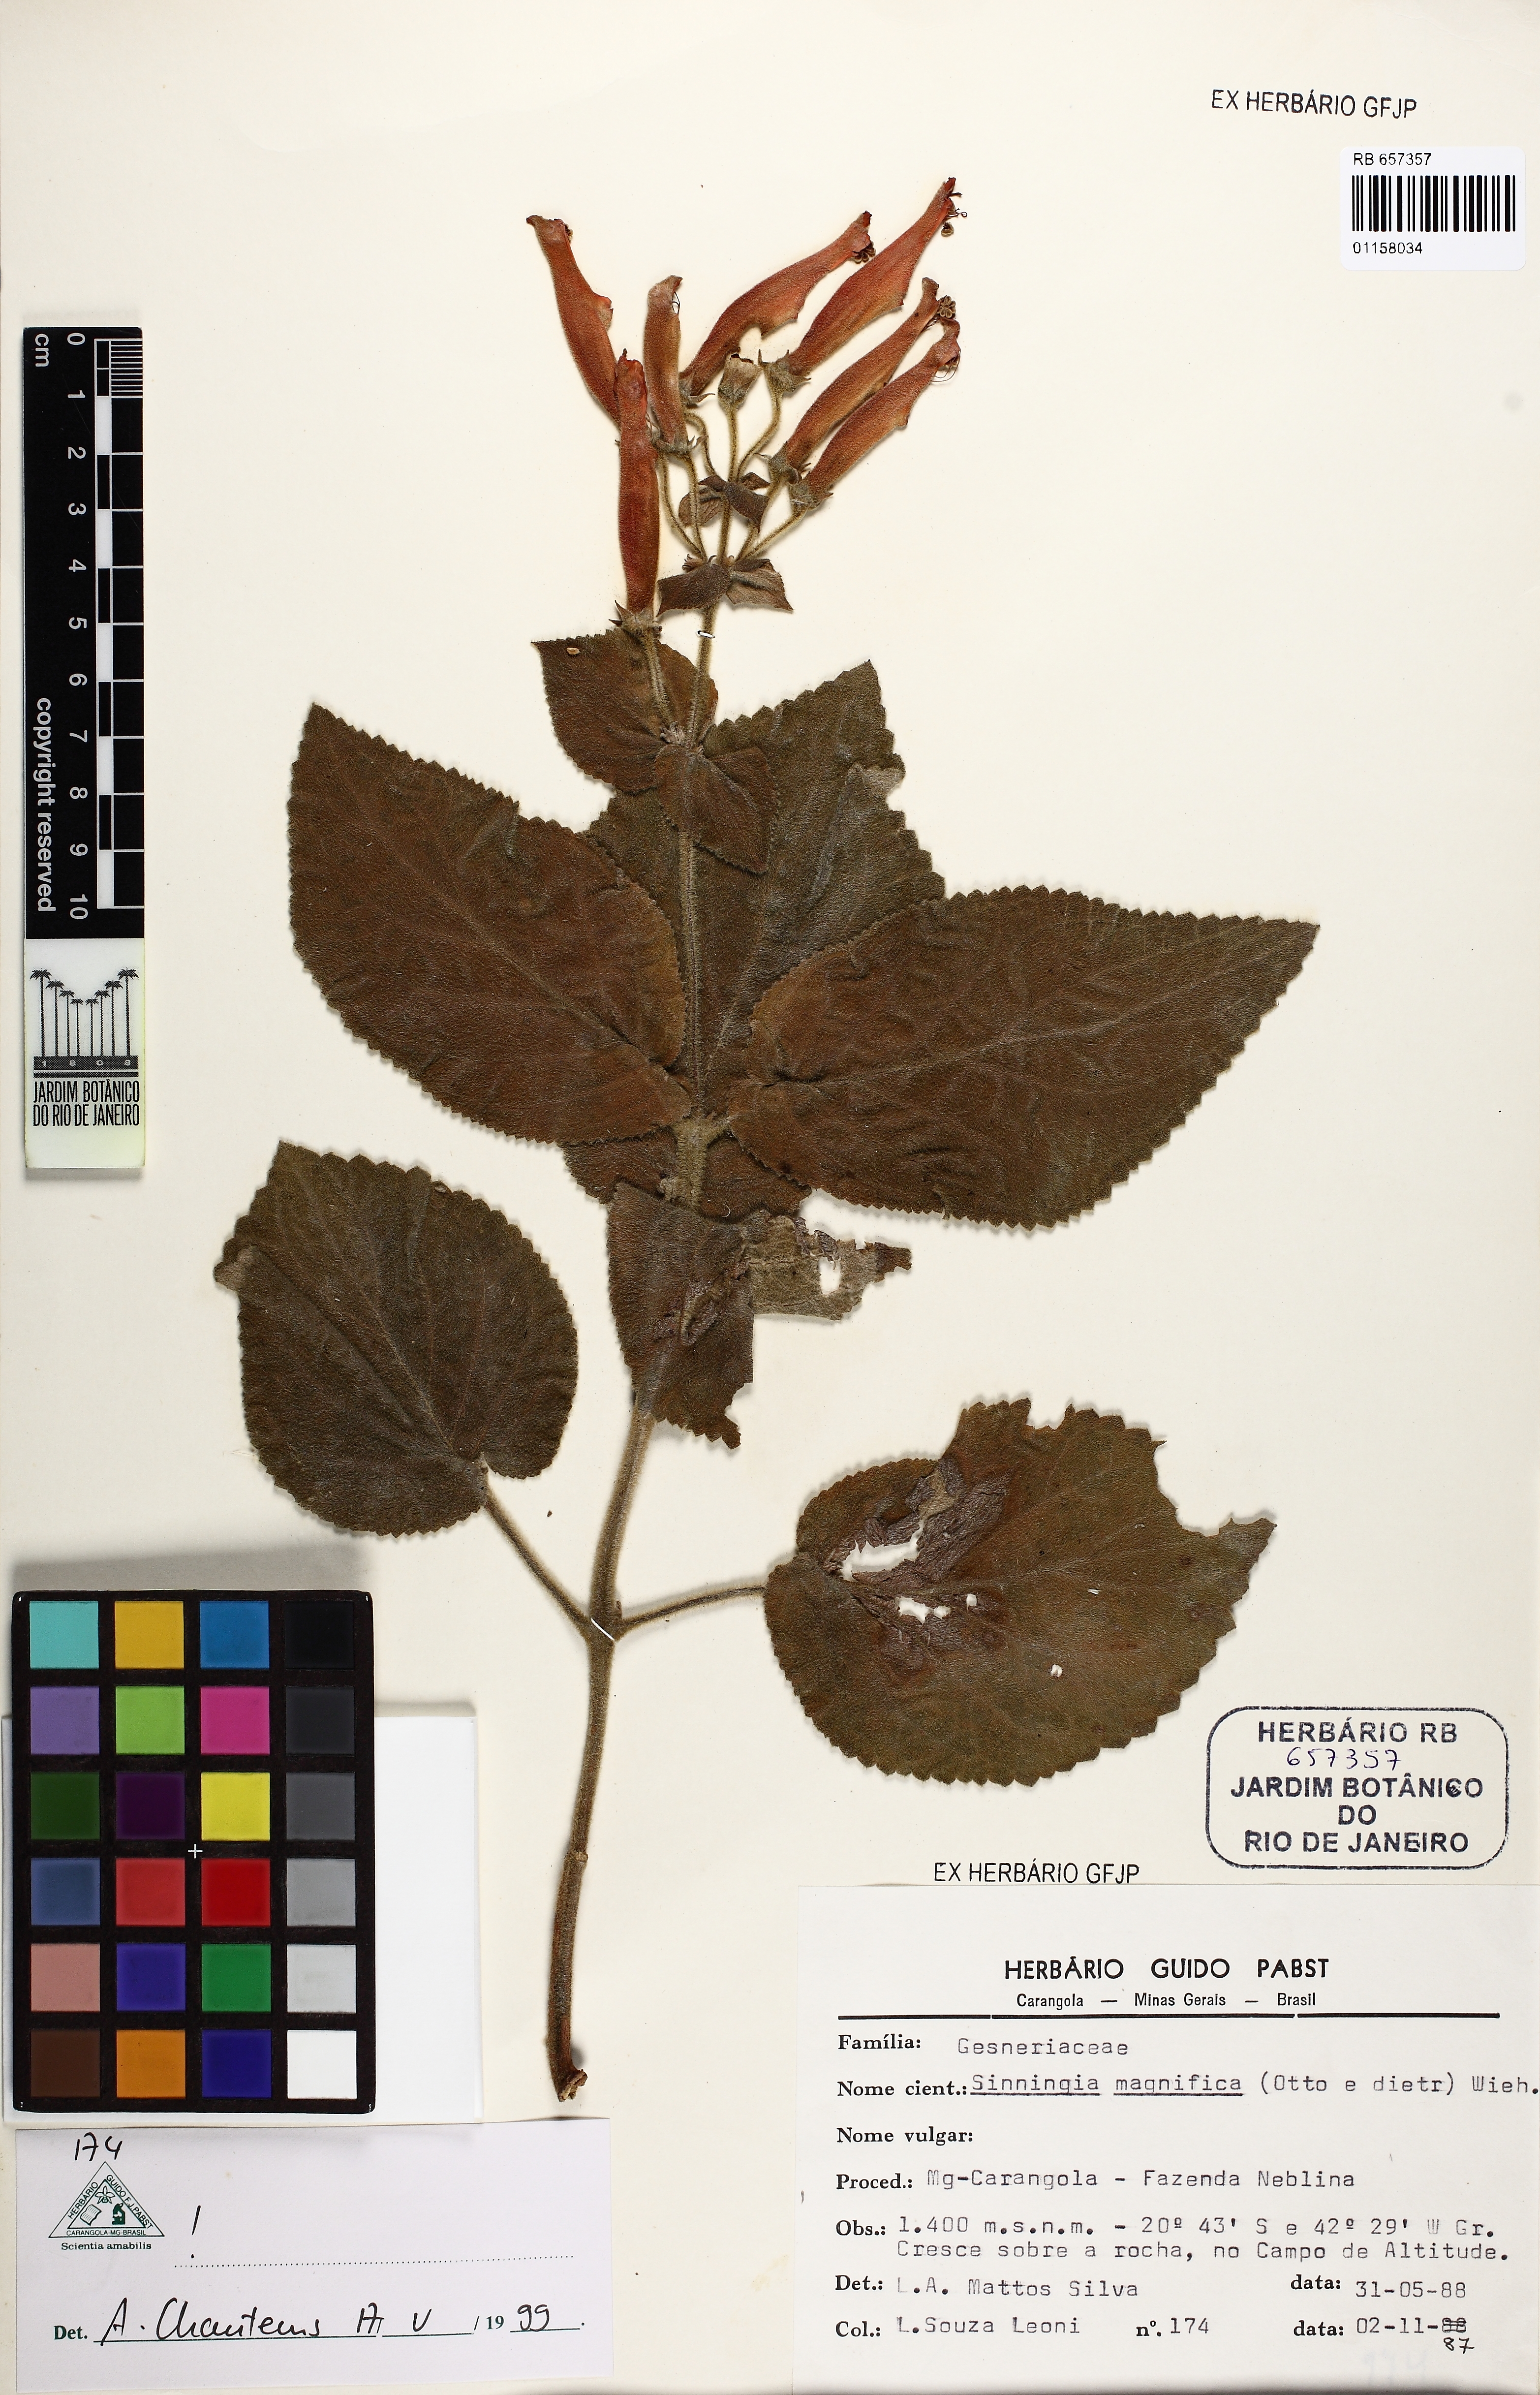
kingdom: Plantae
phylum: Tracheophyta
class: Magnoliopsida
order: Lamiales
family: Gesneriaceae
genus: Sinningia
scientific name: Sinningia magnifica
